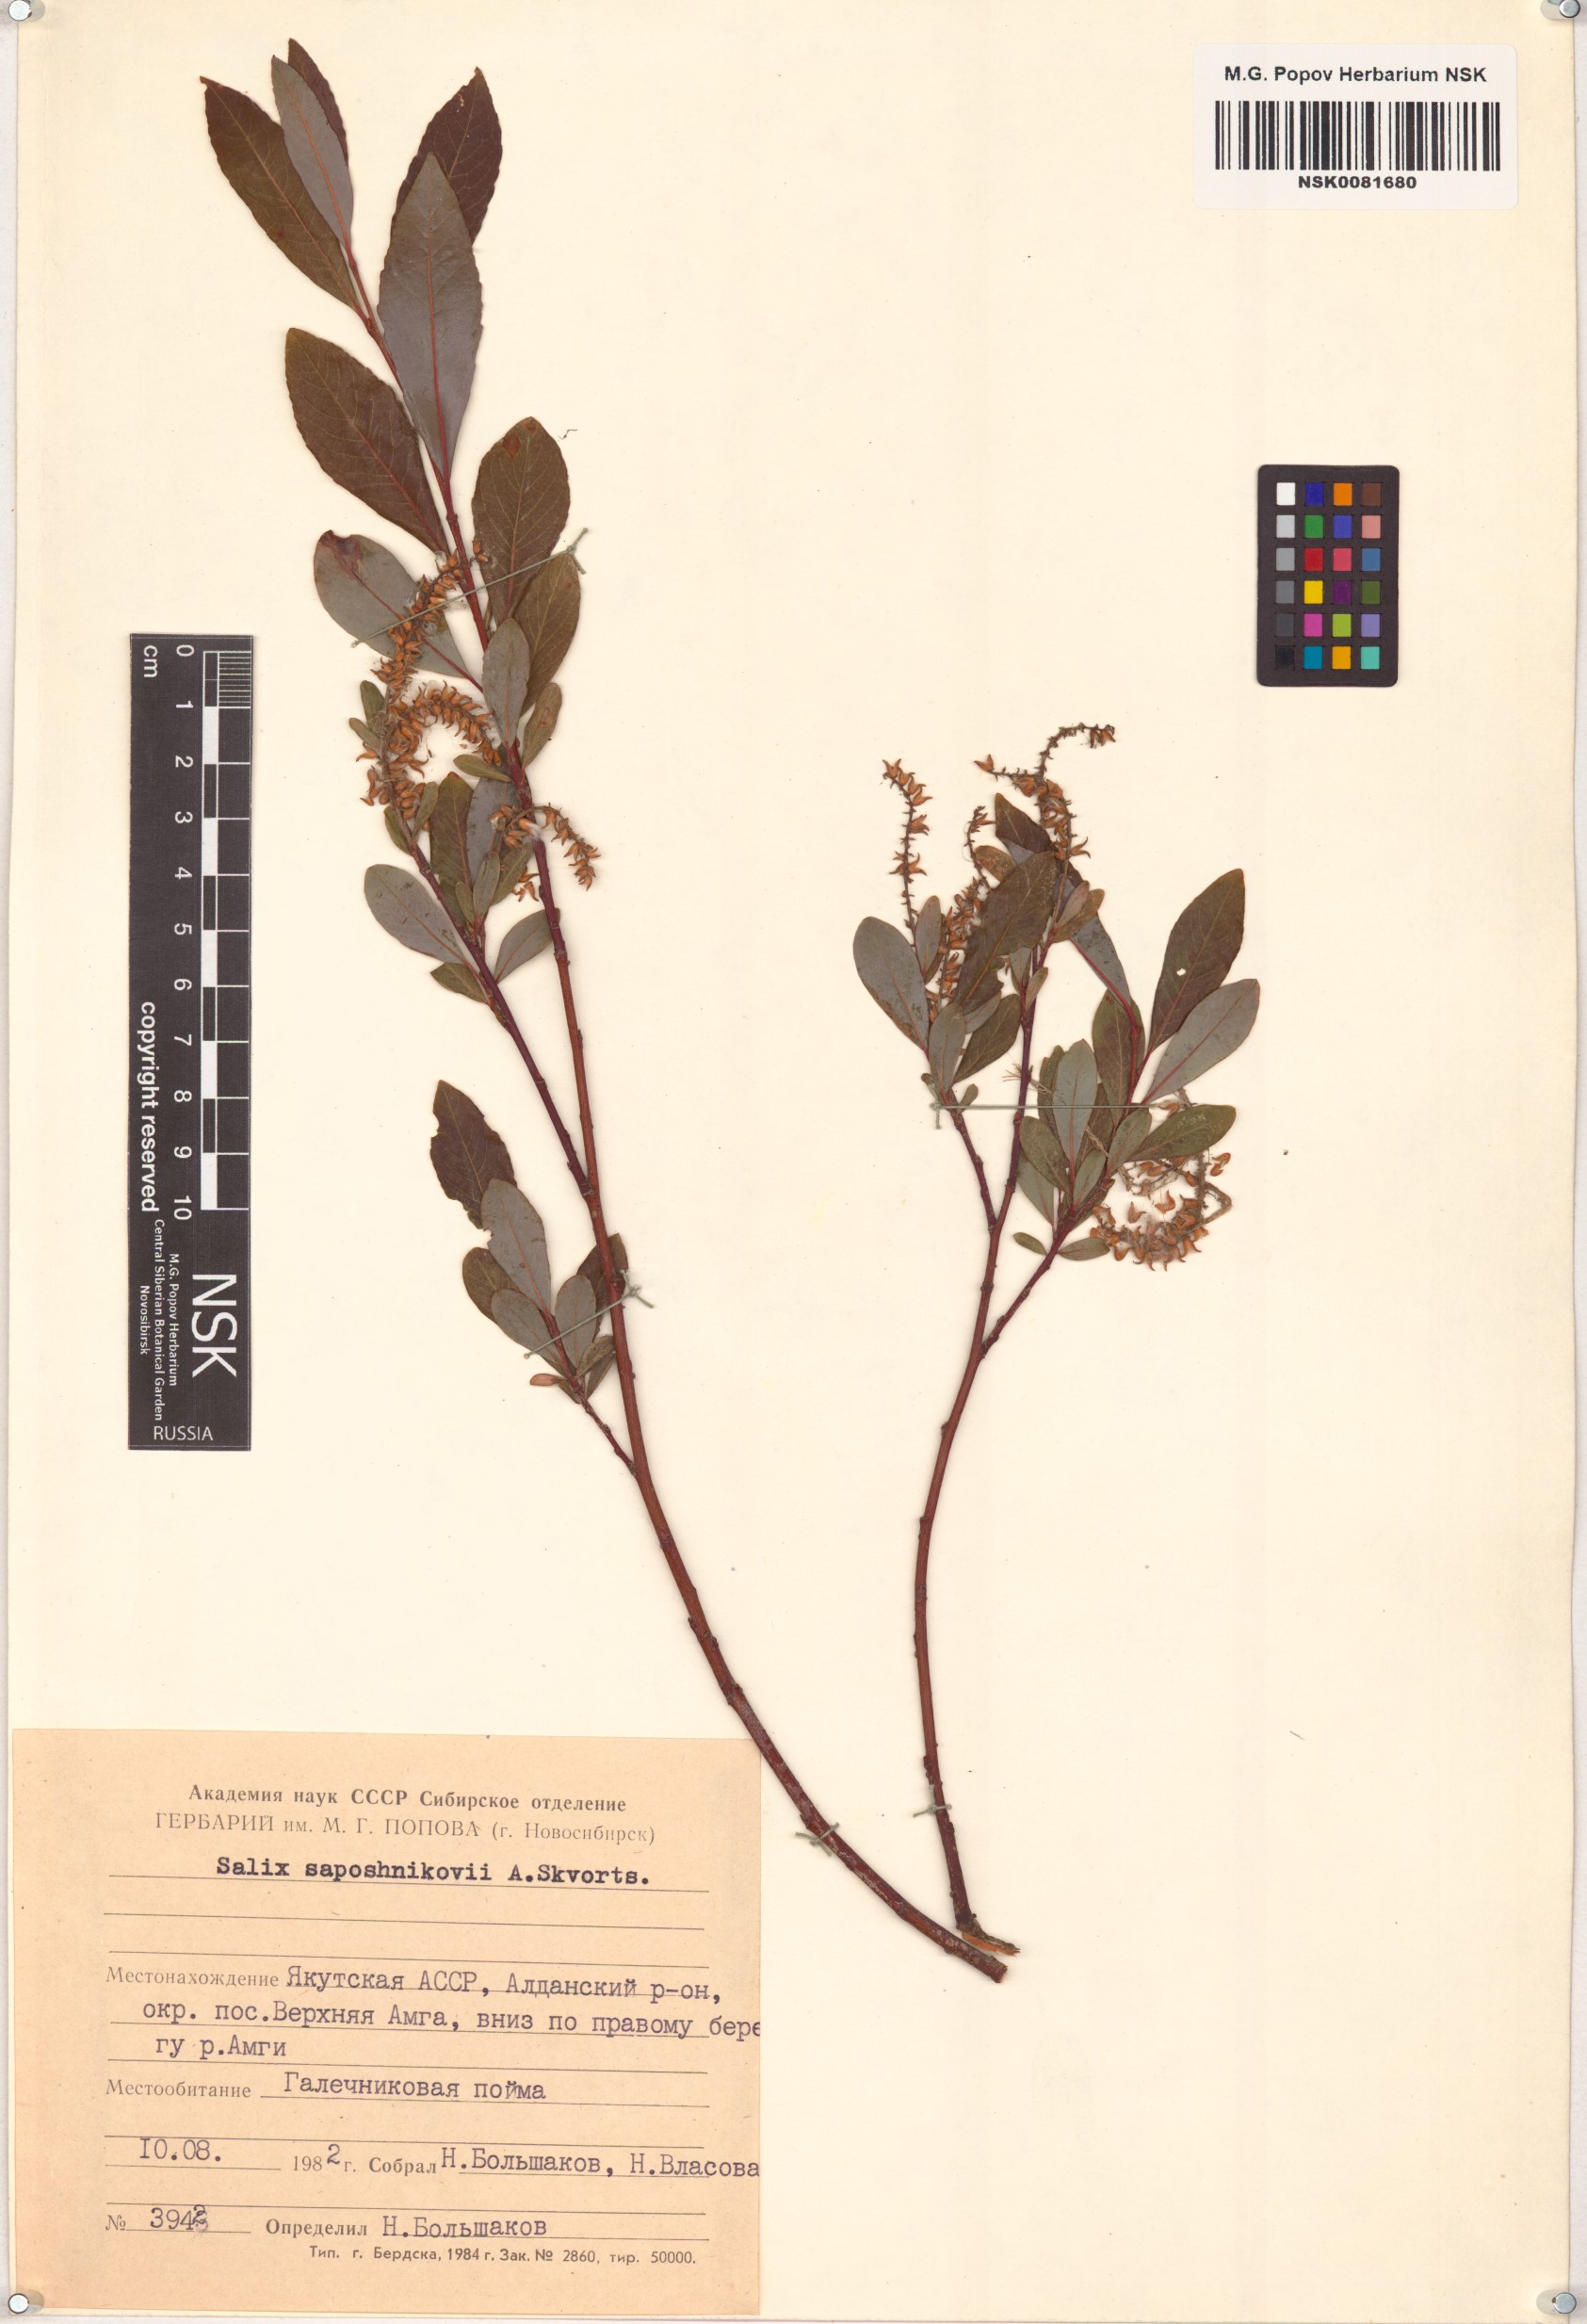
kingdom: Plantae
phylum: Tracheophyta
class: Magnoliopsida
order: Malpighiales
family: Salicaceae
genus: Salix
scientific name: Salix saposhnikovii
